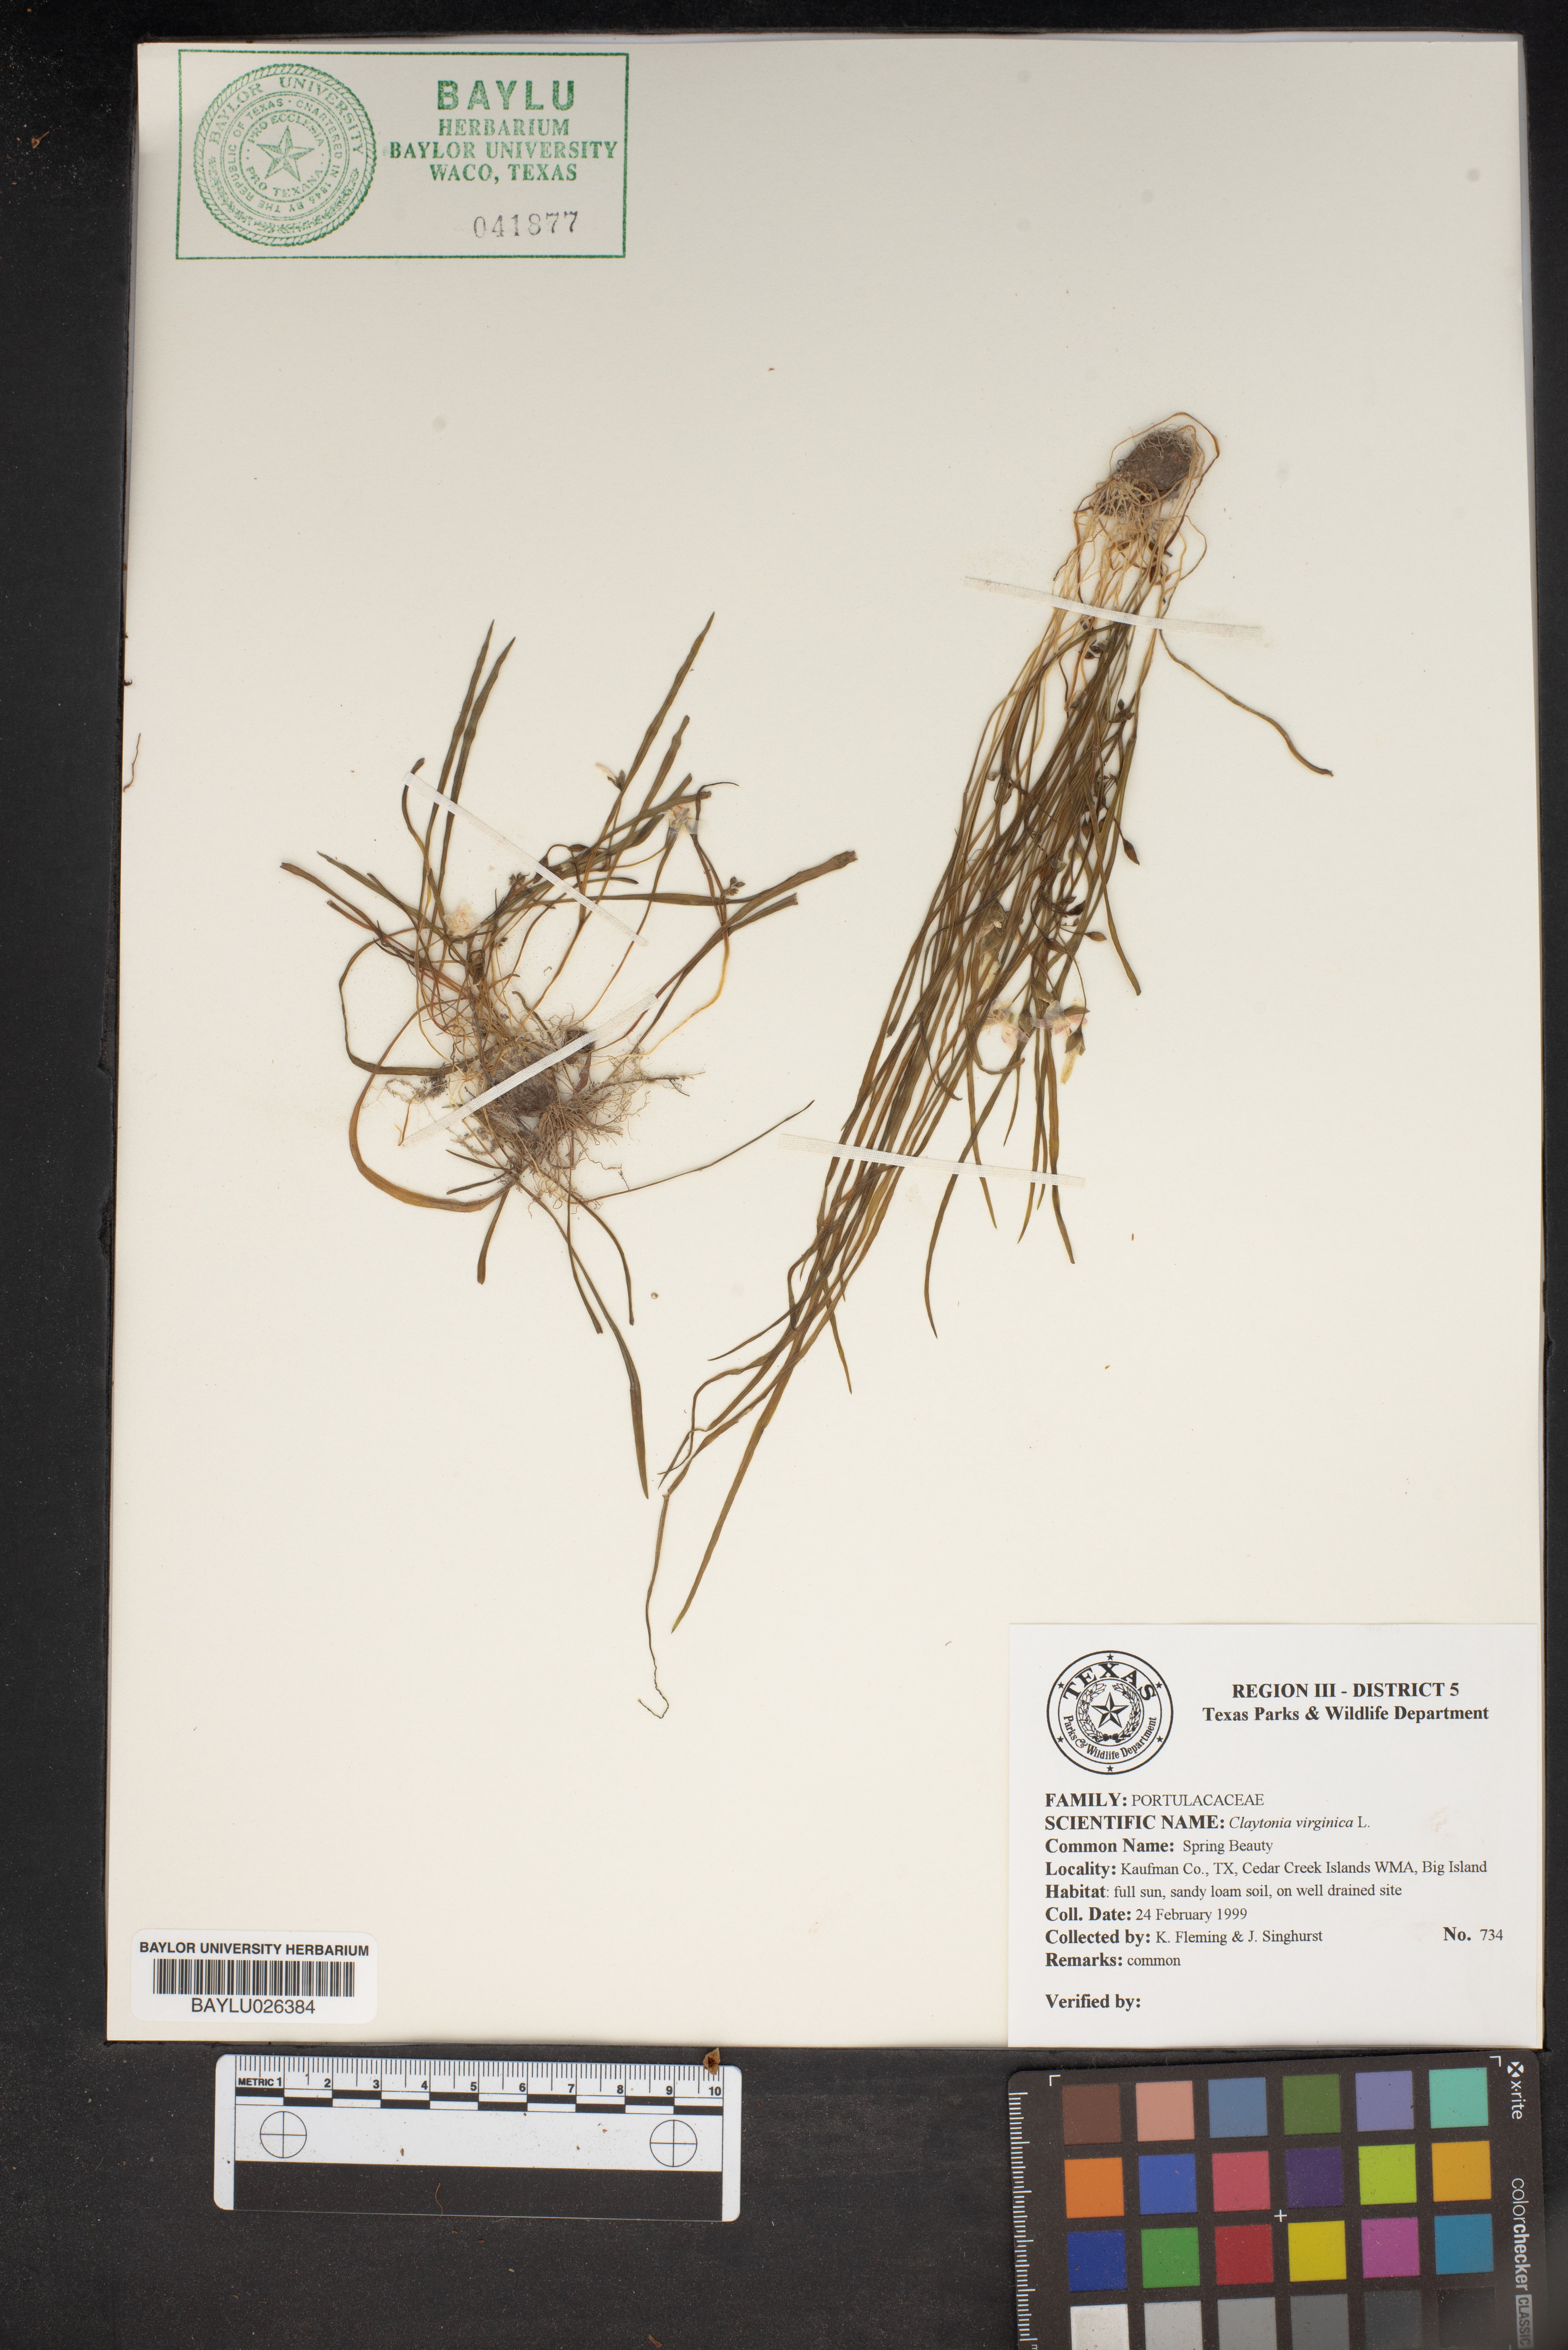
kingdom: Plantae
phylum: Tracheophyta
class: Magnoliopsida
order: Caryophyllales
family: Montiaceae
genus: Claytonia
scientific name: Claytonia virginica
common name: Virginia springbeauty
